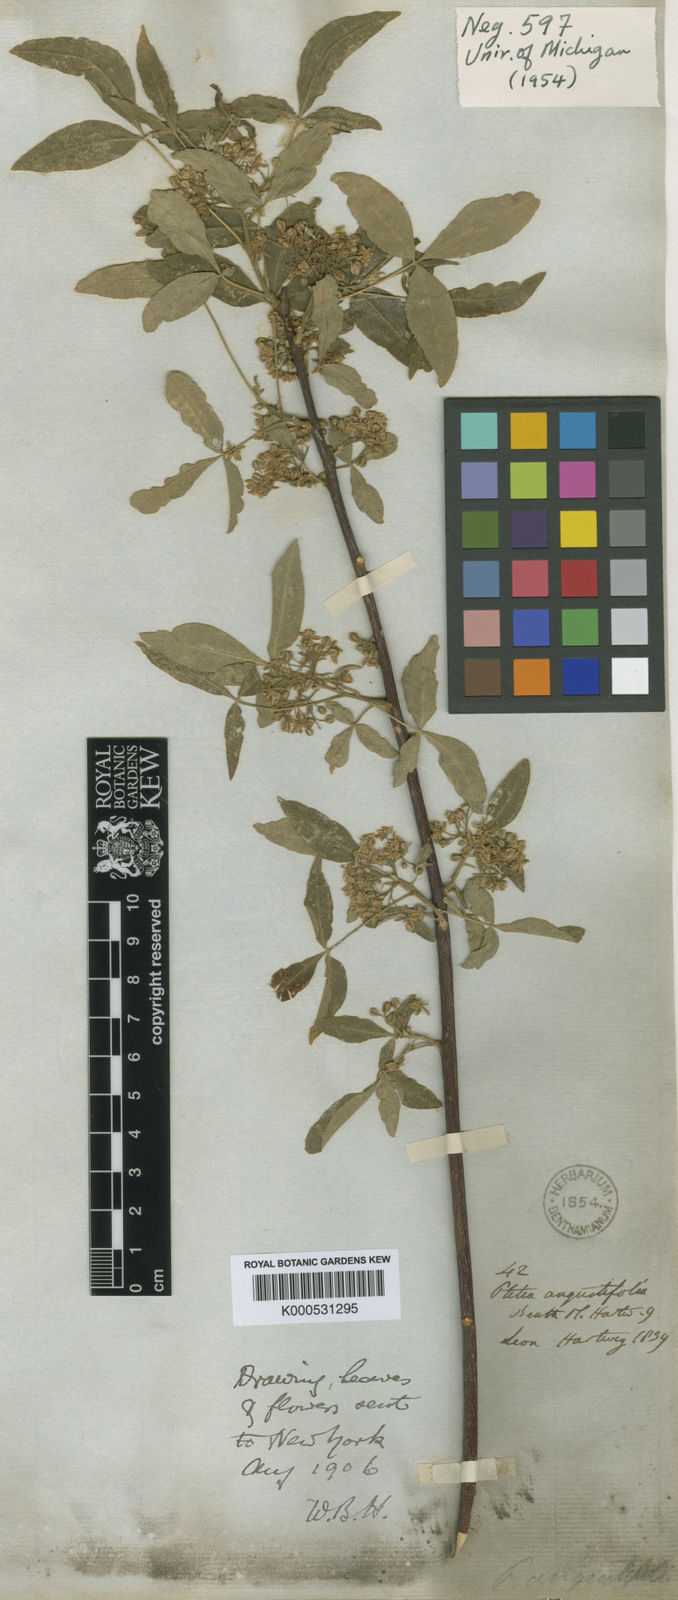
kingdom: Plantae
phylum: Tracheophyta
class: Magnoliopsida
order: Sapindales
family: Rutaceae
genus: Ptelea
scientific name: Ptelea trifoliata
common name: Common hop-tree
